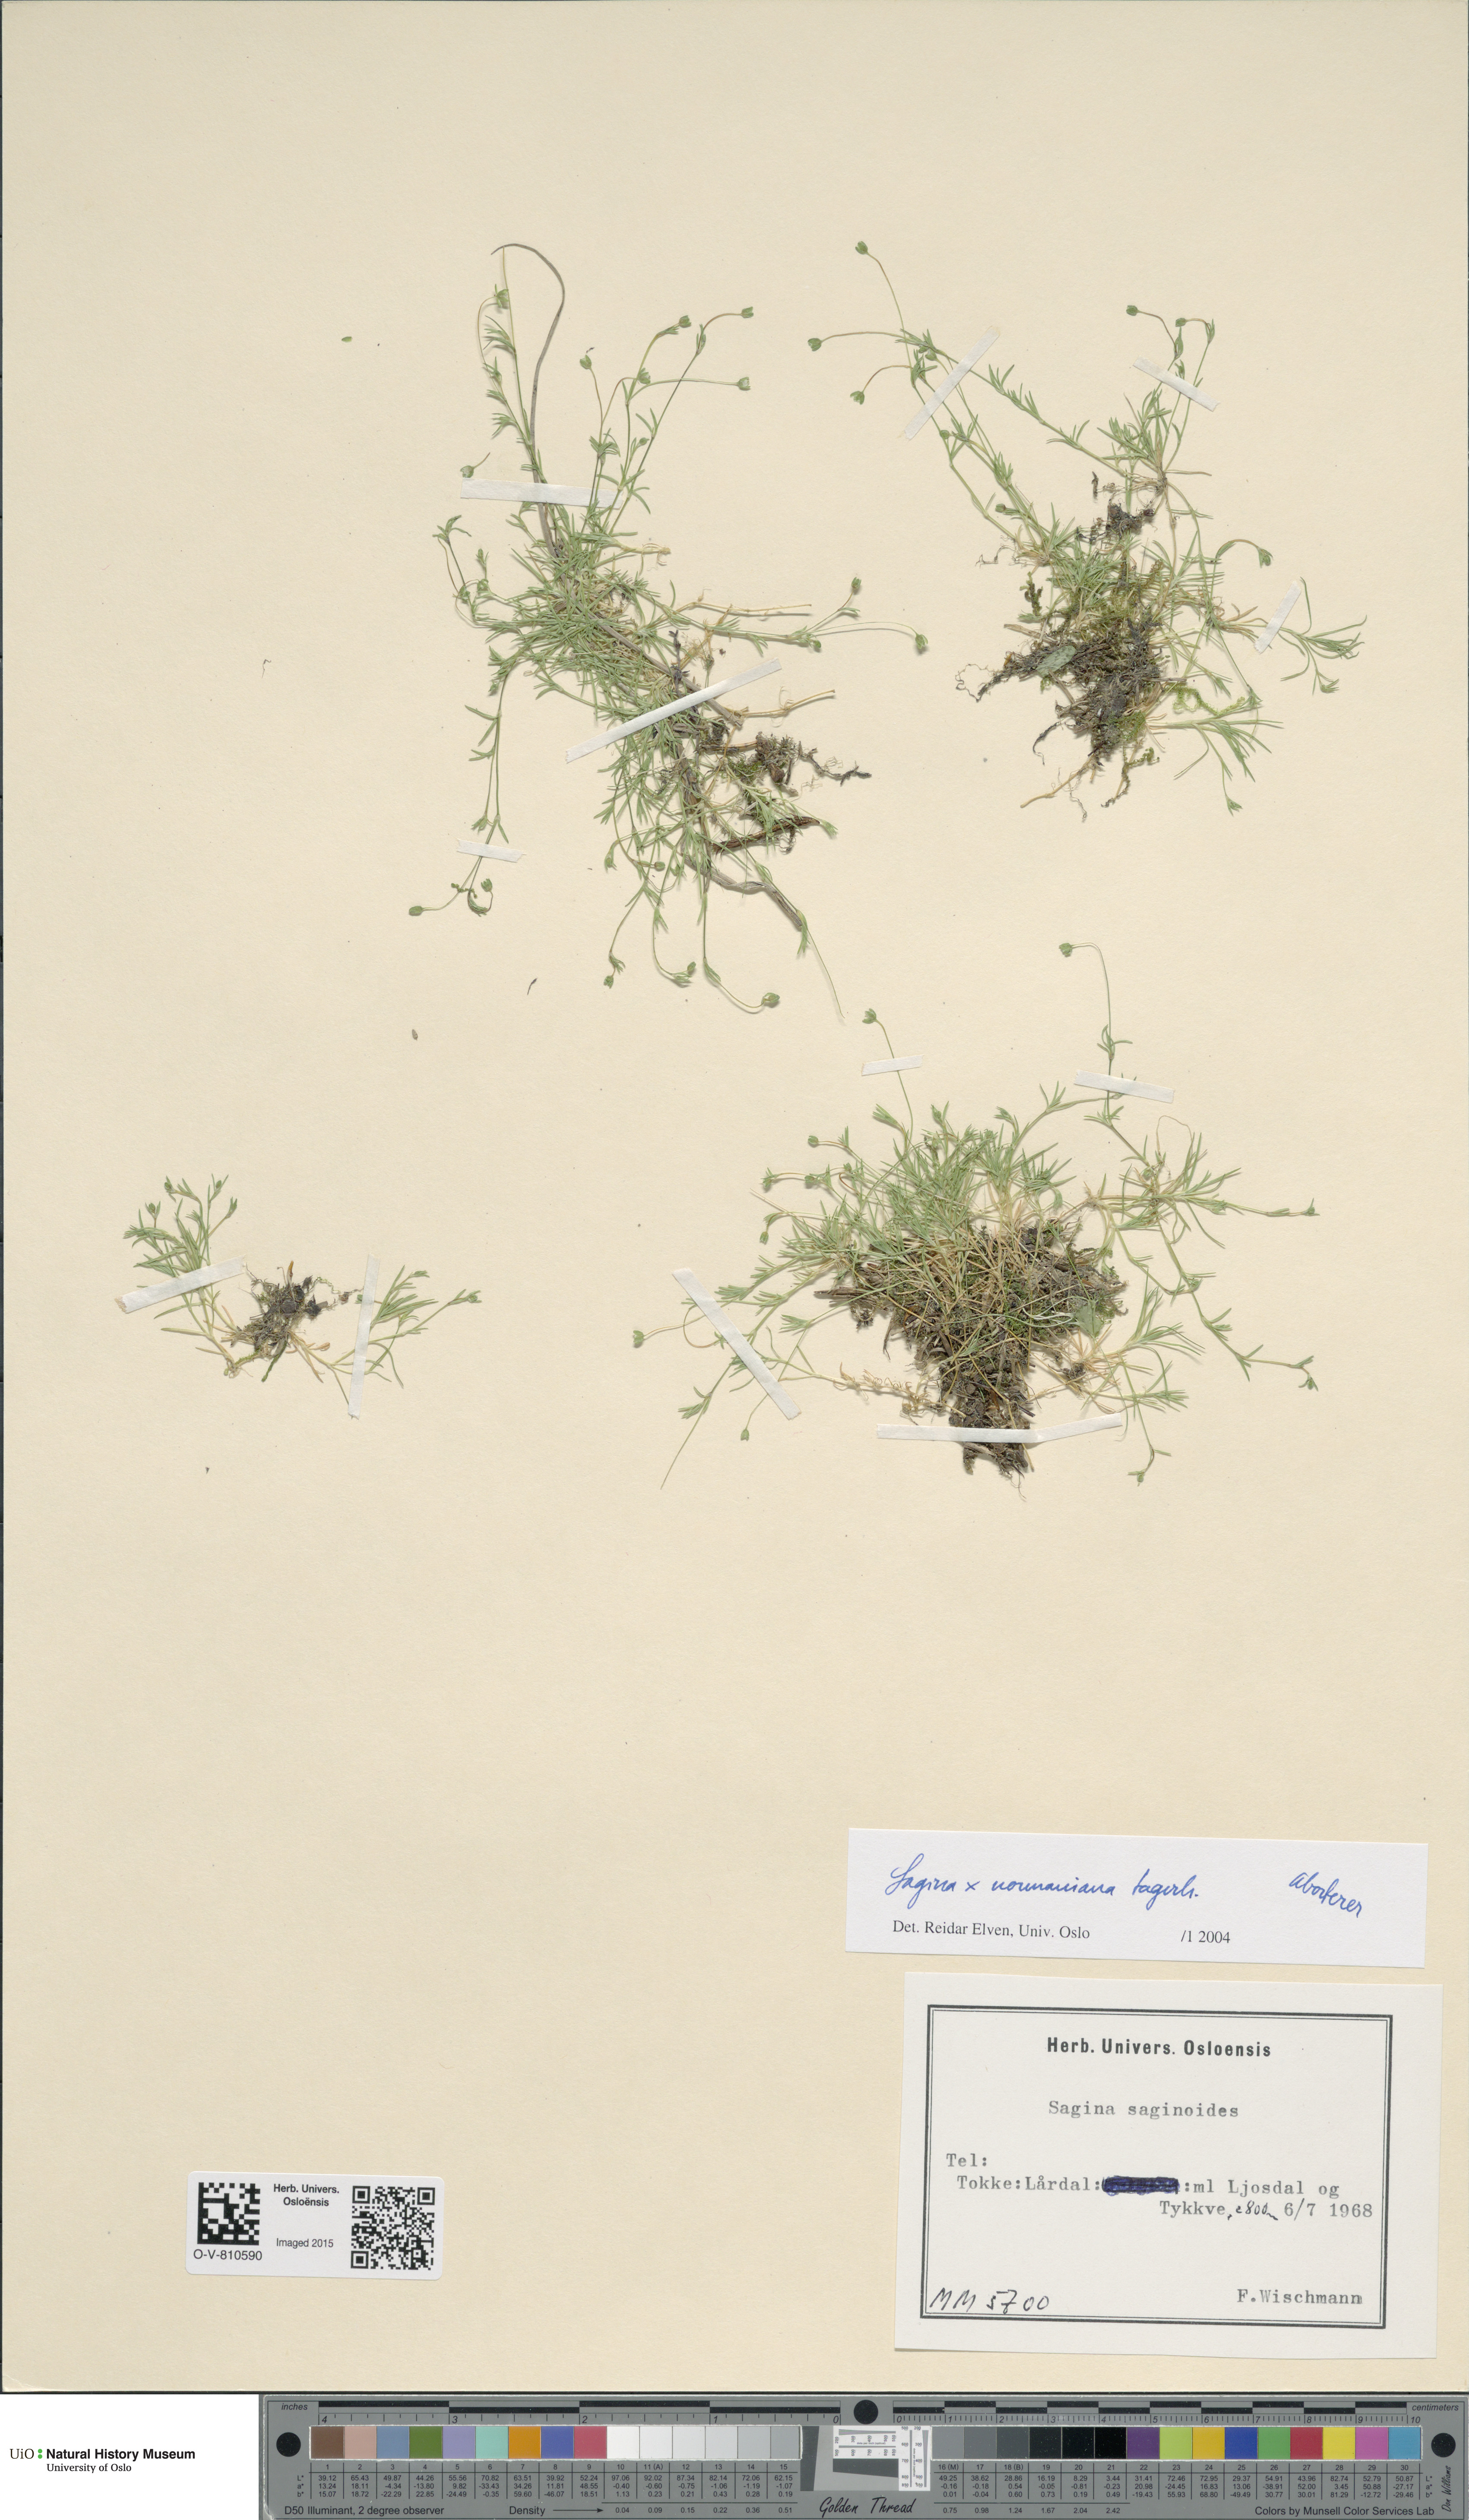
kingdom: Plantae
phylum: Tracheophyta
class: Magnoliopsida
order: Caryophyllales
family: Caryophyllaceae
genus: Sagina
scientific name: Sagina media
